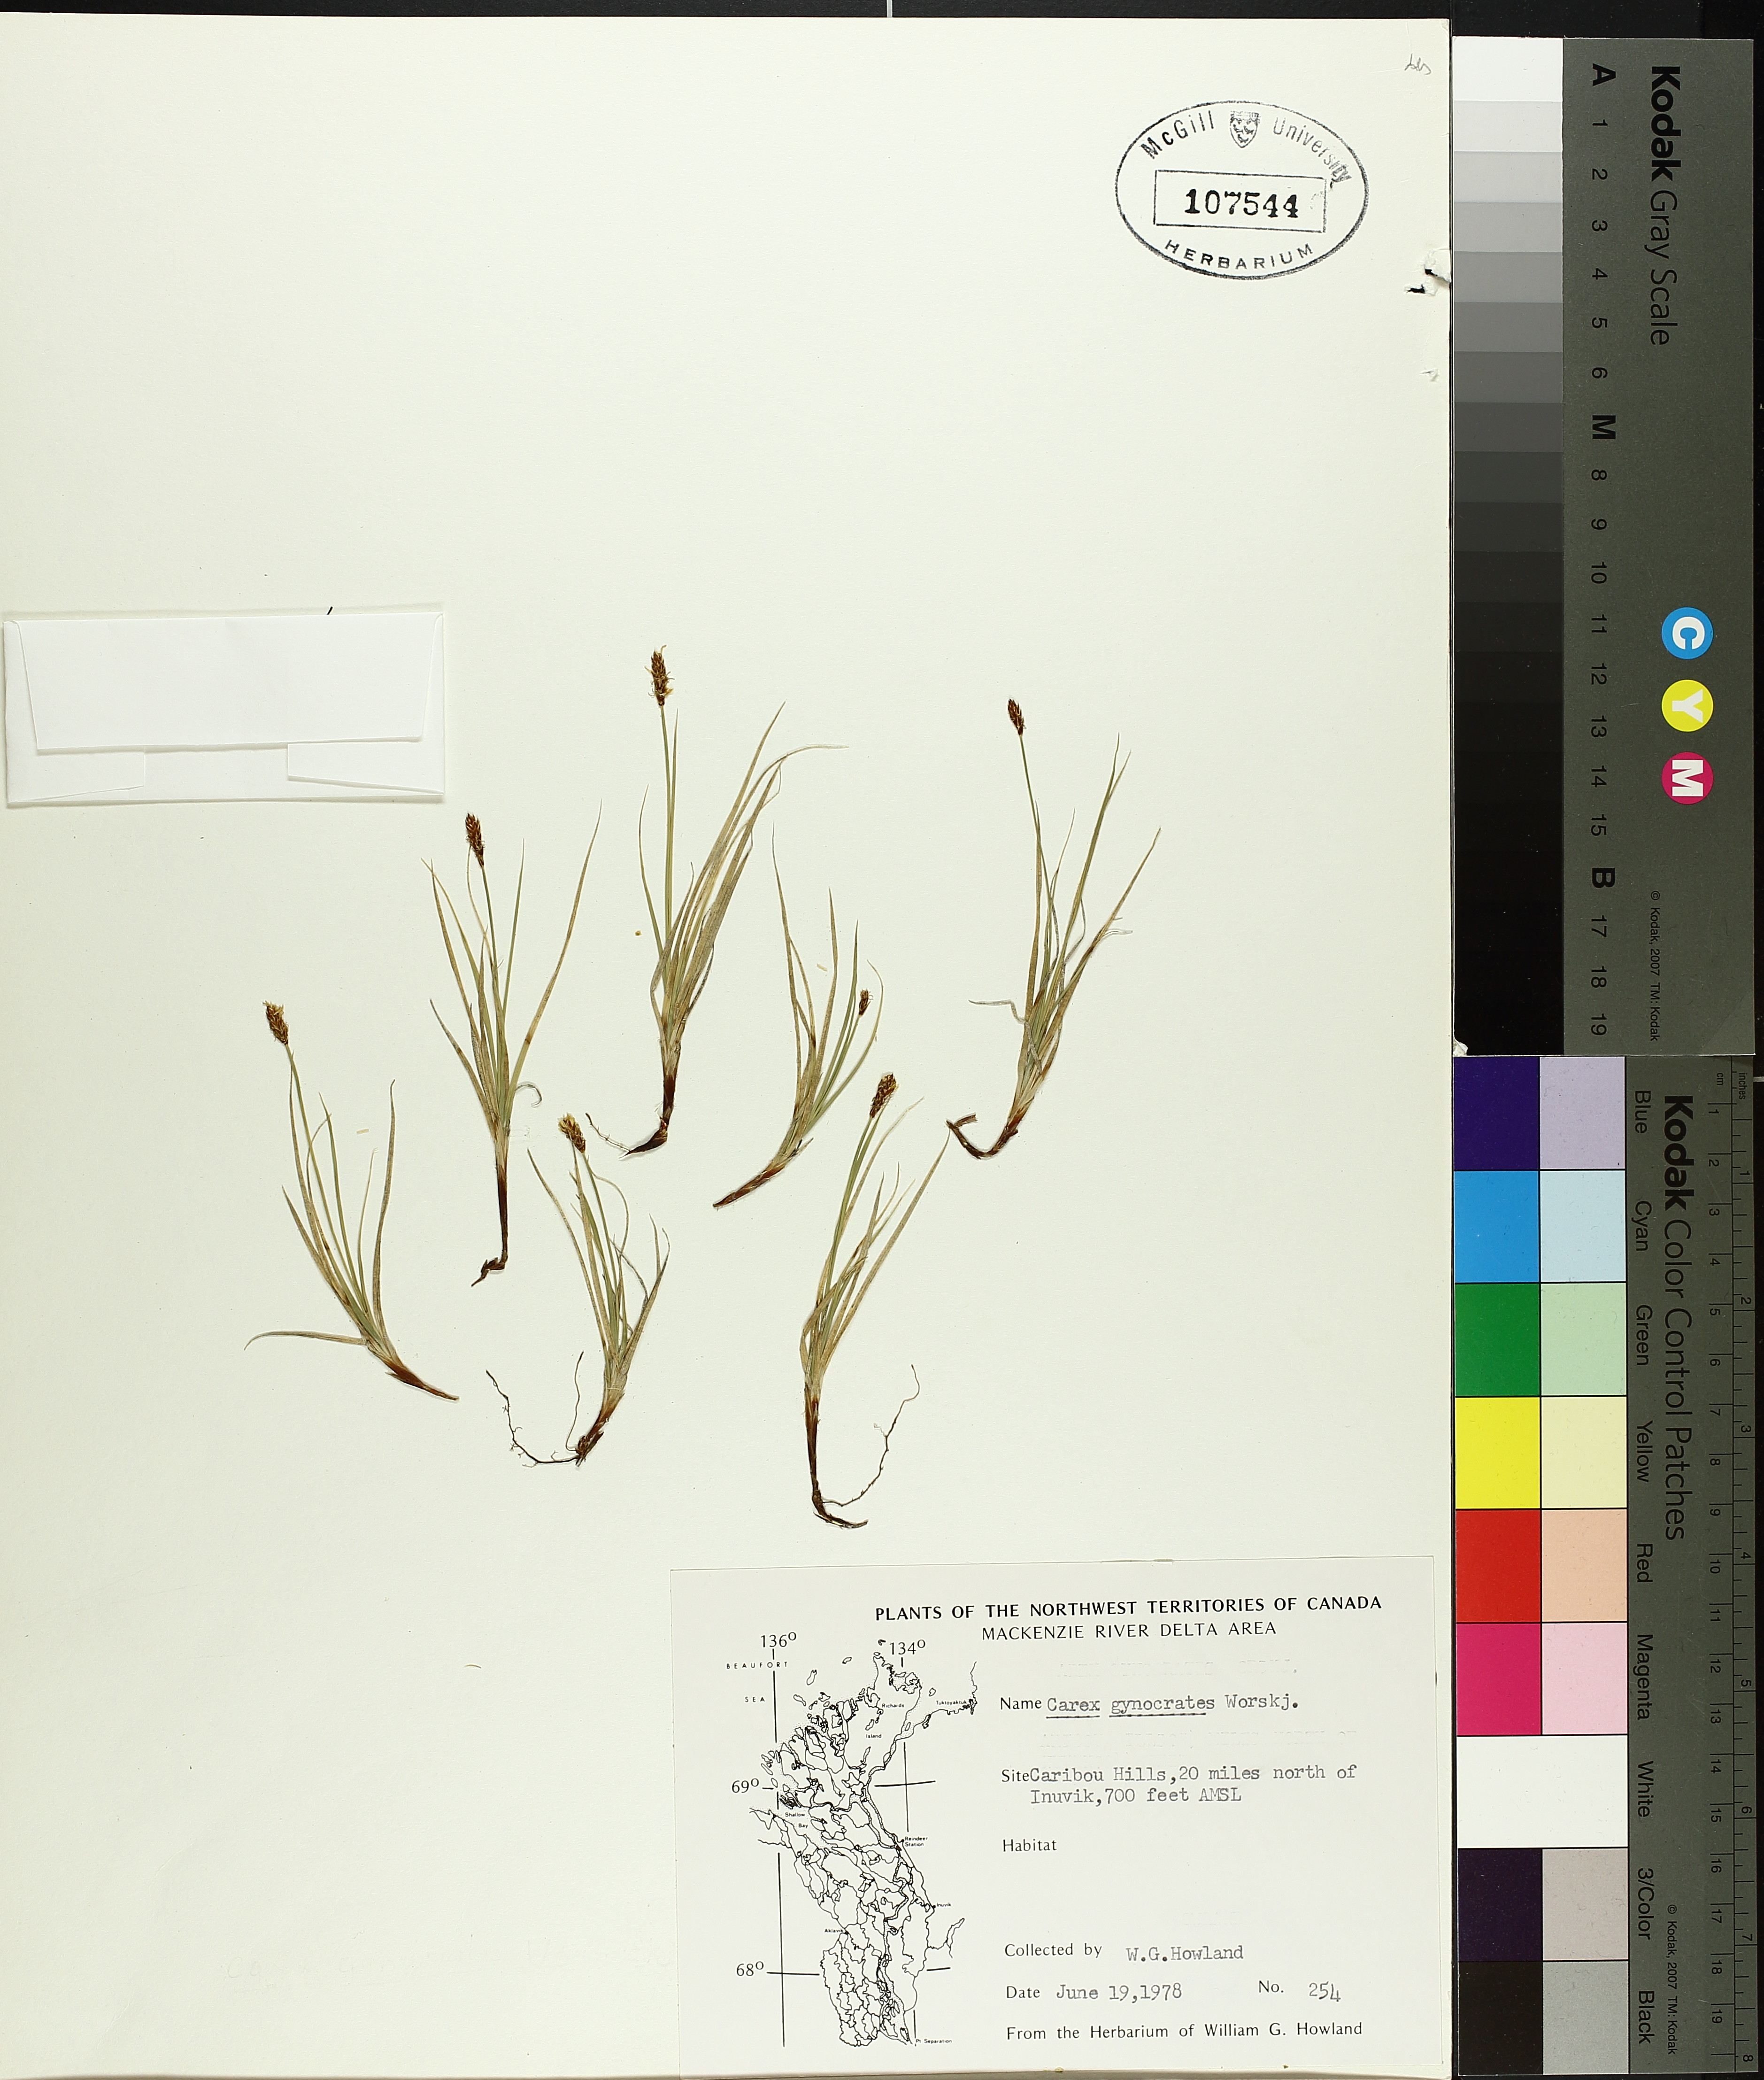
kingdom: Plantae
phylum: Tracheophyta
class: Liliopsida
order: Poales
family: Cyperaceae
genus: Carex
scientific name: Carex gynocrates
